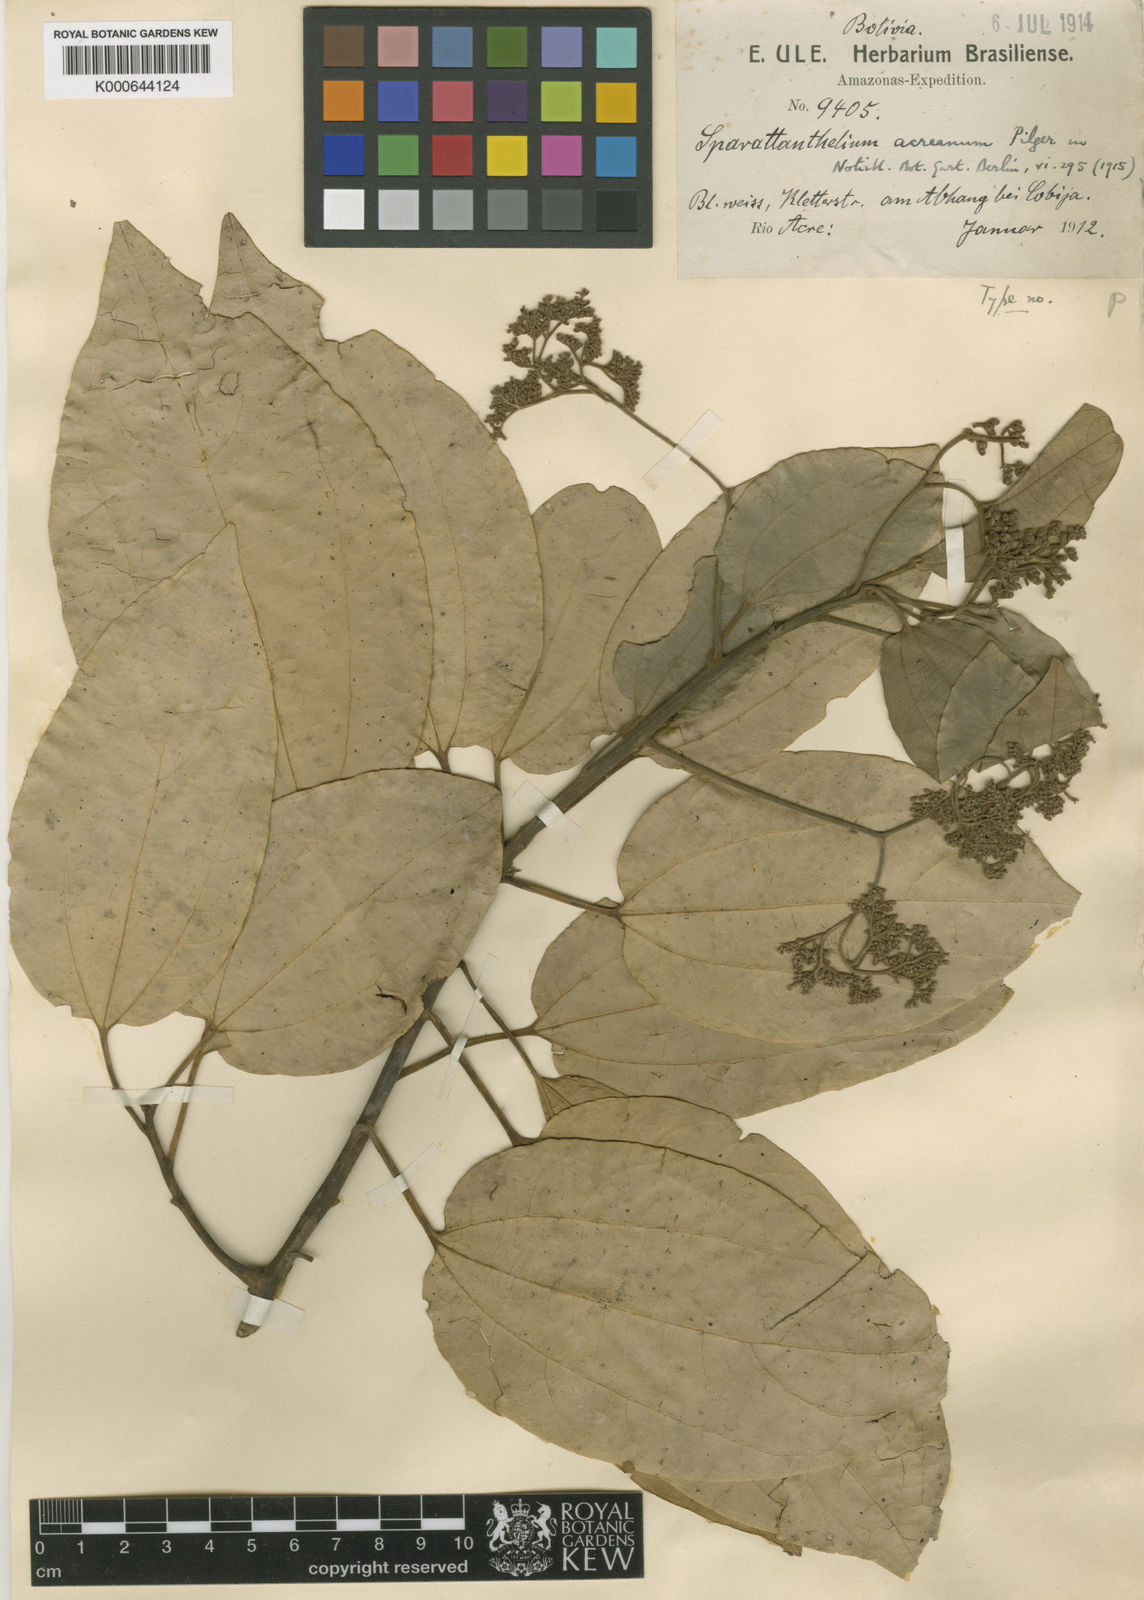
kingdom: Plantae
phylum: Tracheophyta
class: Magnoliopsida
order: Laurales
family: Hernandiaceae
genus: Sparattanthelium
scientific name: Sparattanthelium acreanum
